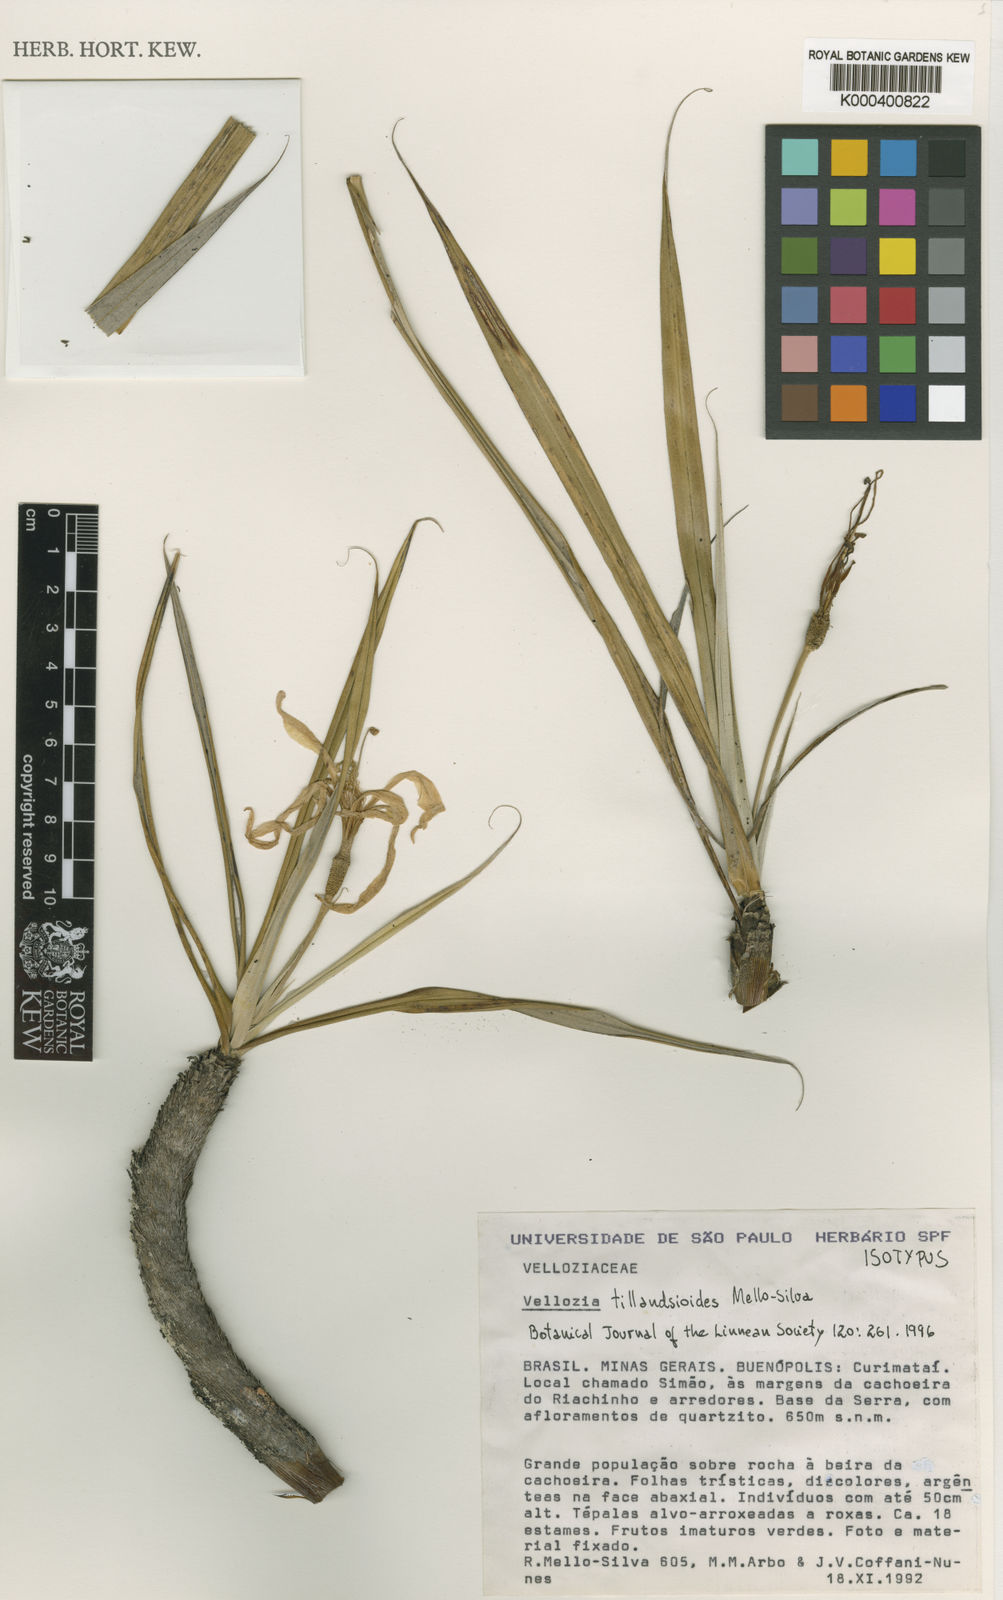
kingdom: Plantae
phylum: Tracheophyta
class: Liliopsida
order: Pandanales
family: Velloziaceae
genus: Vellozia
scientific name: Vellozia tillandsioides
